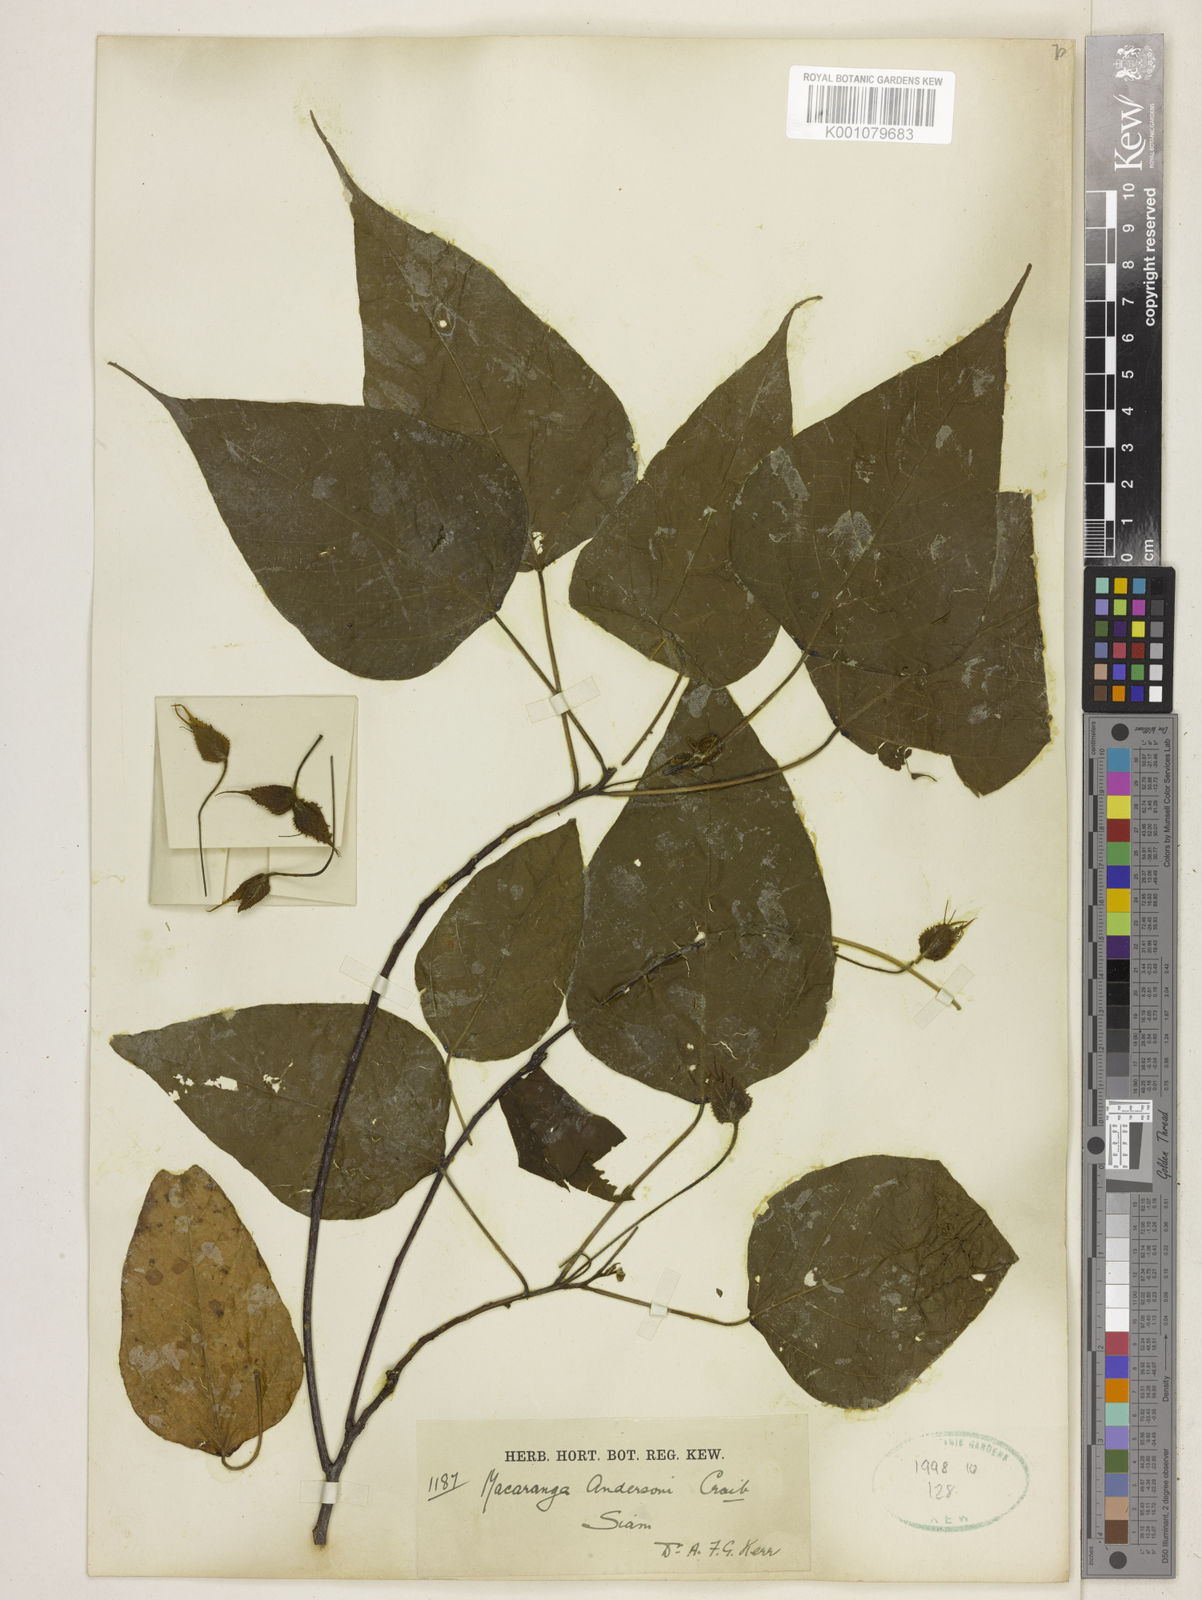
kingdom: Plantae
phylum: Tracheophyta
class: Magnoliopsida
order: Malpighiales
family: Euphorbiaceae
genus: Macaranga
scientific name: Macaranga kurzii
